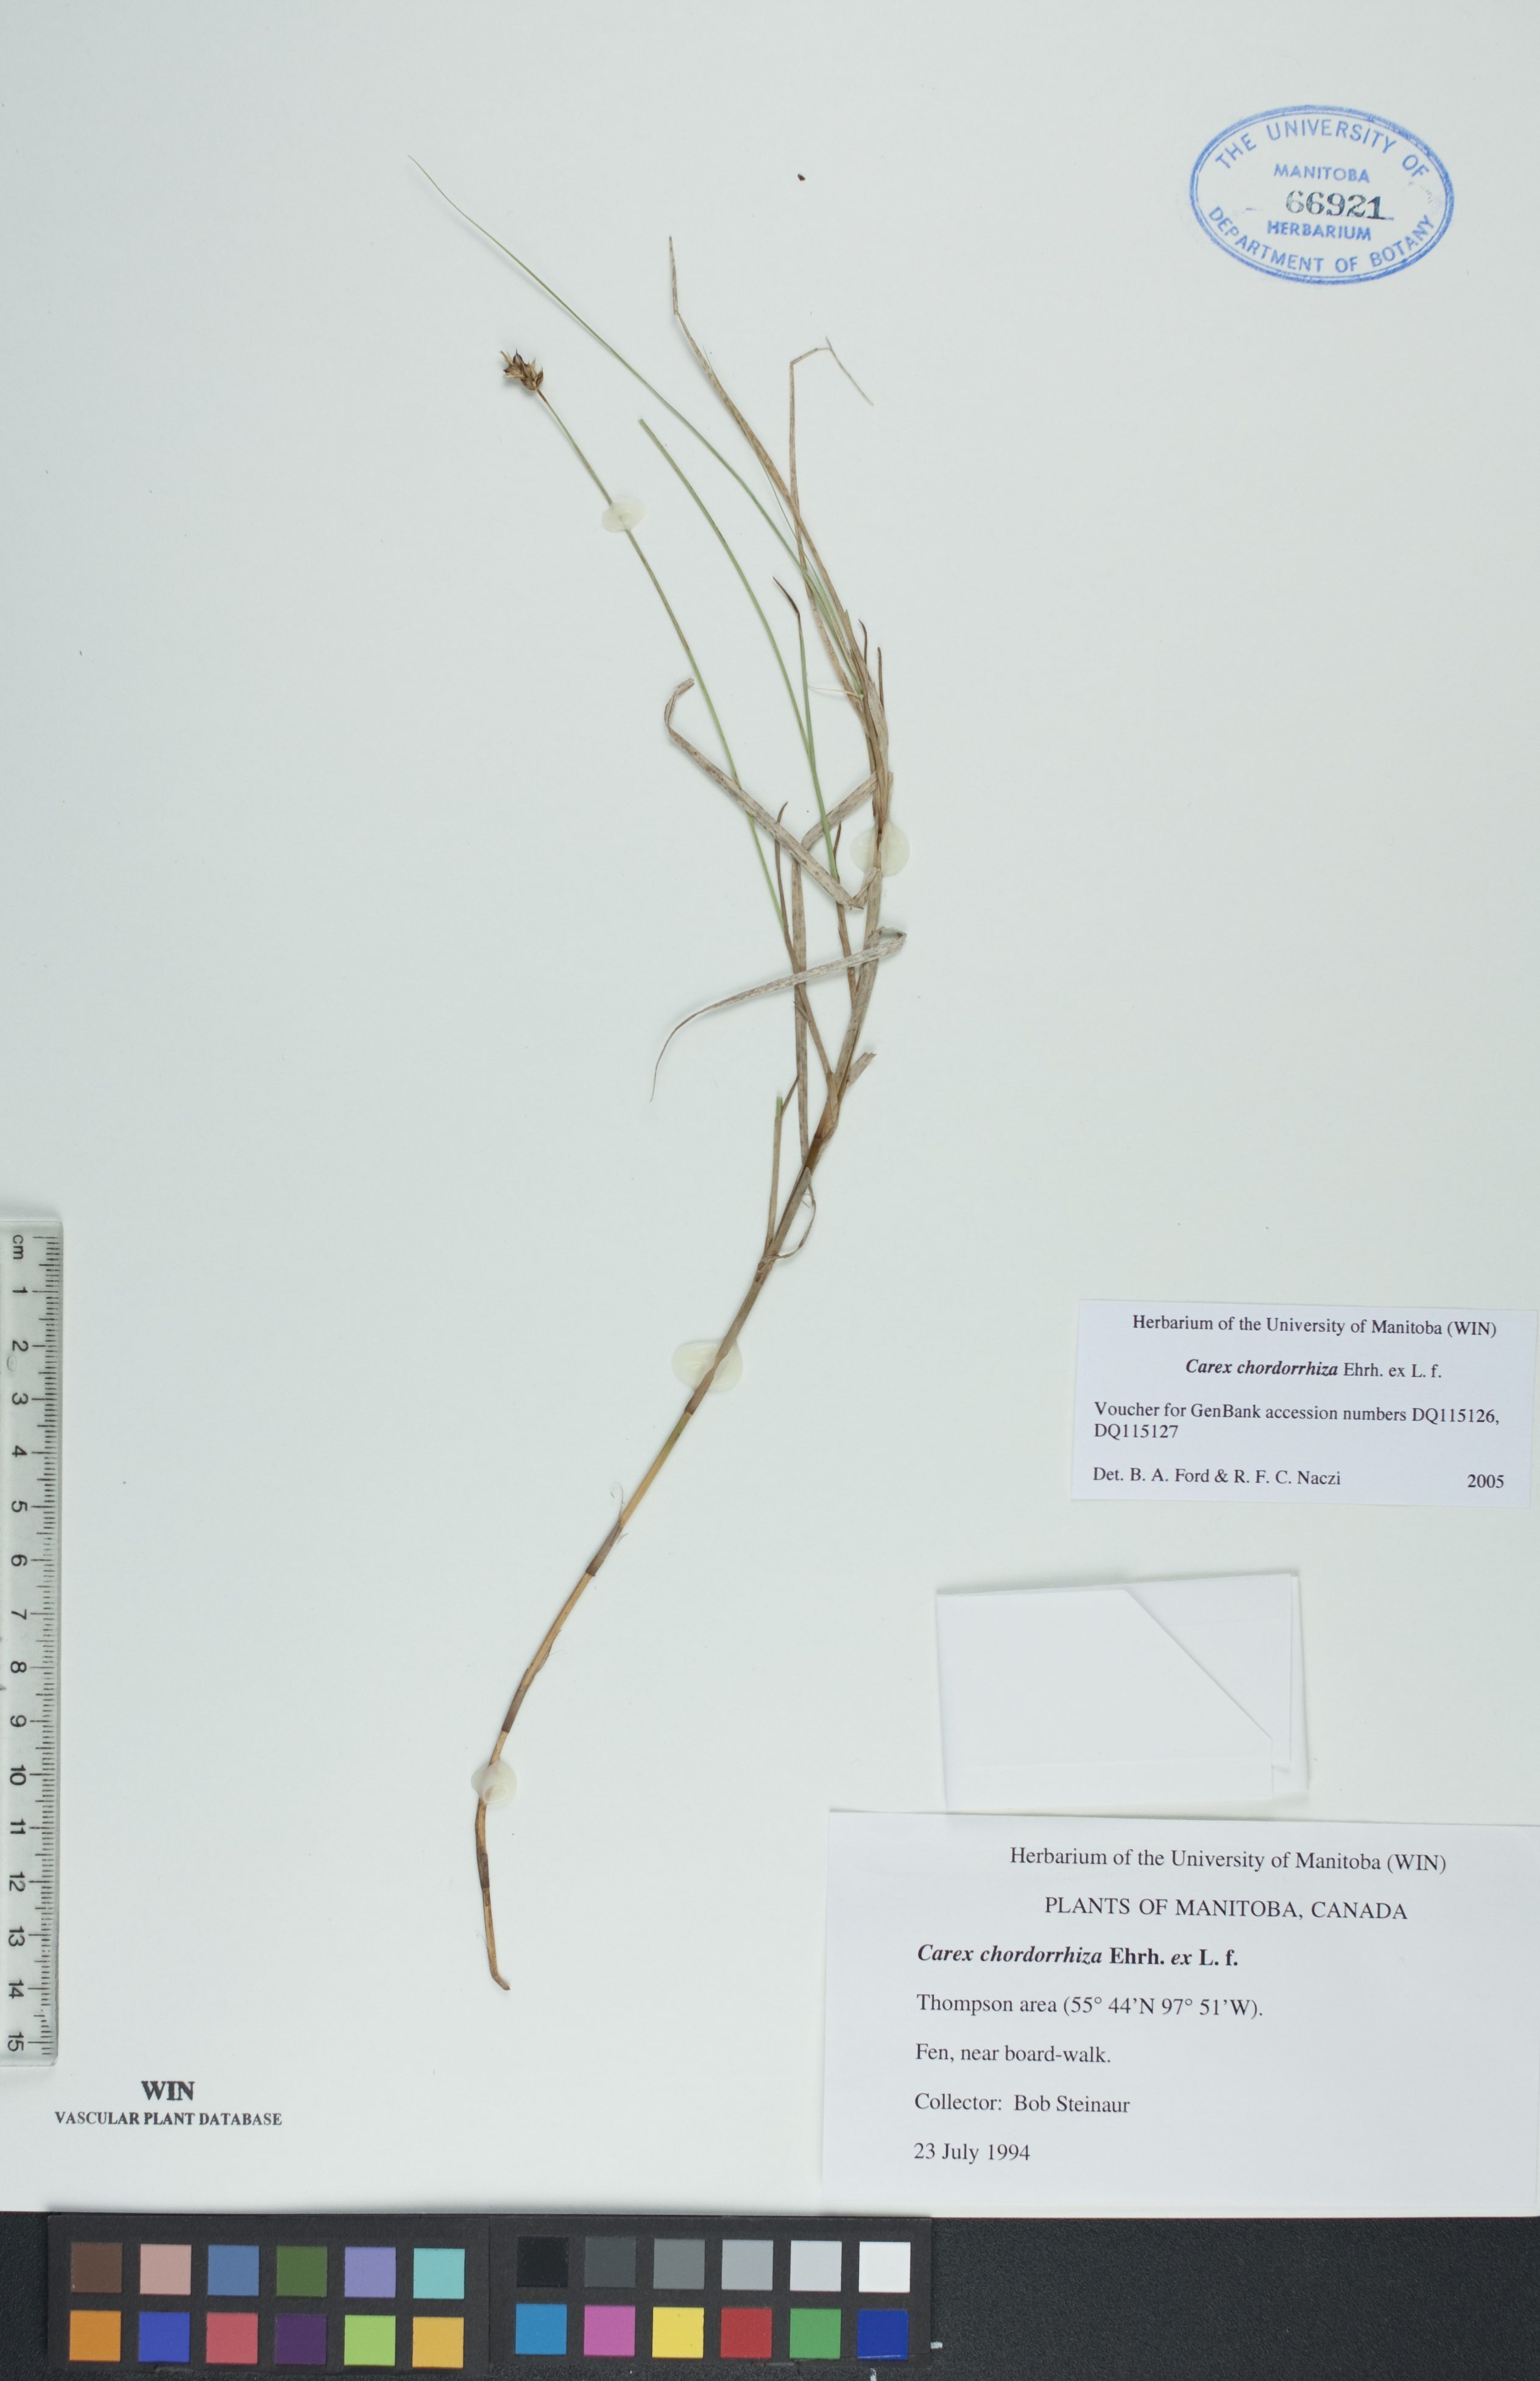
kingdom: Plantae
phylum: Tracheophyta
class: Liliopsida
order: Poales
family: Cyperaceae
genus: Carex
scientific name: Carex chordorrhiza
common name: String sedge
